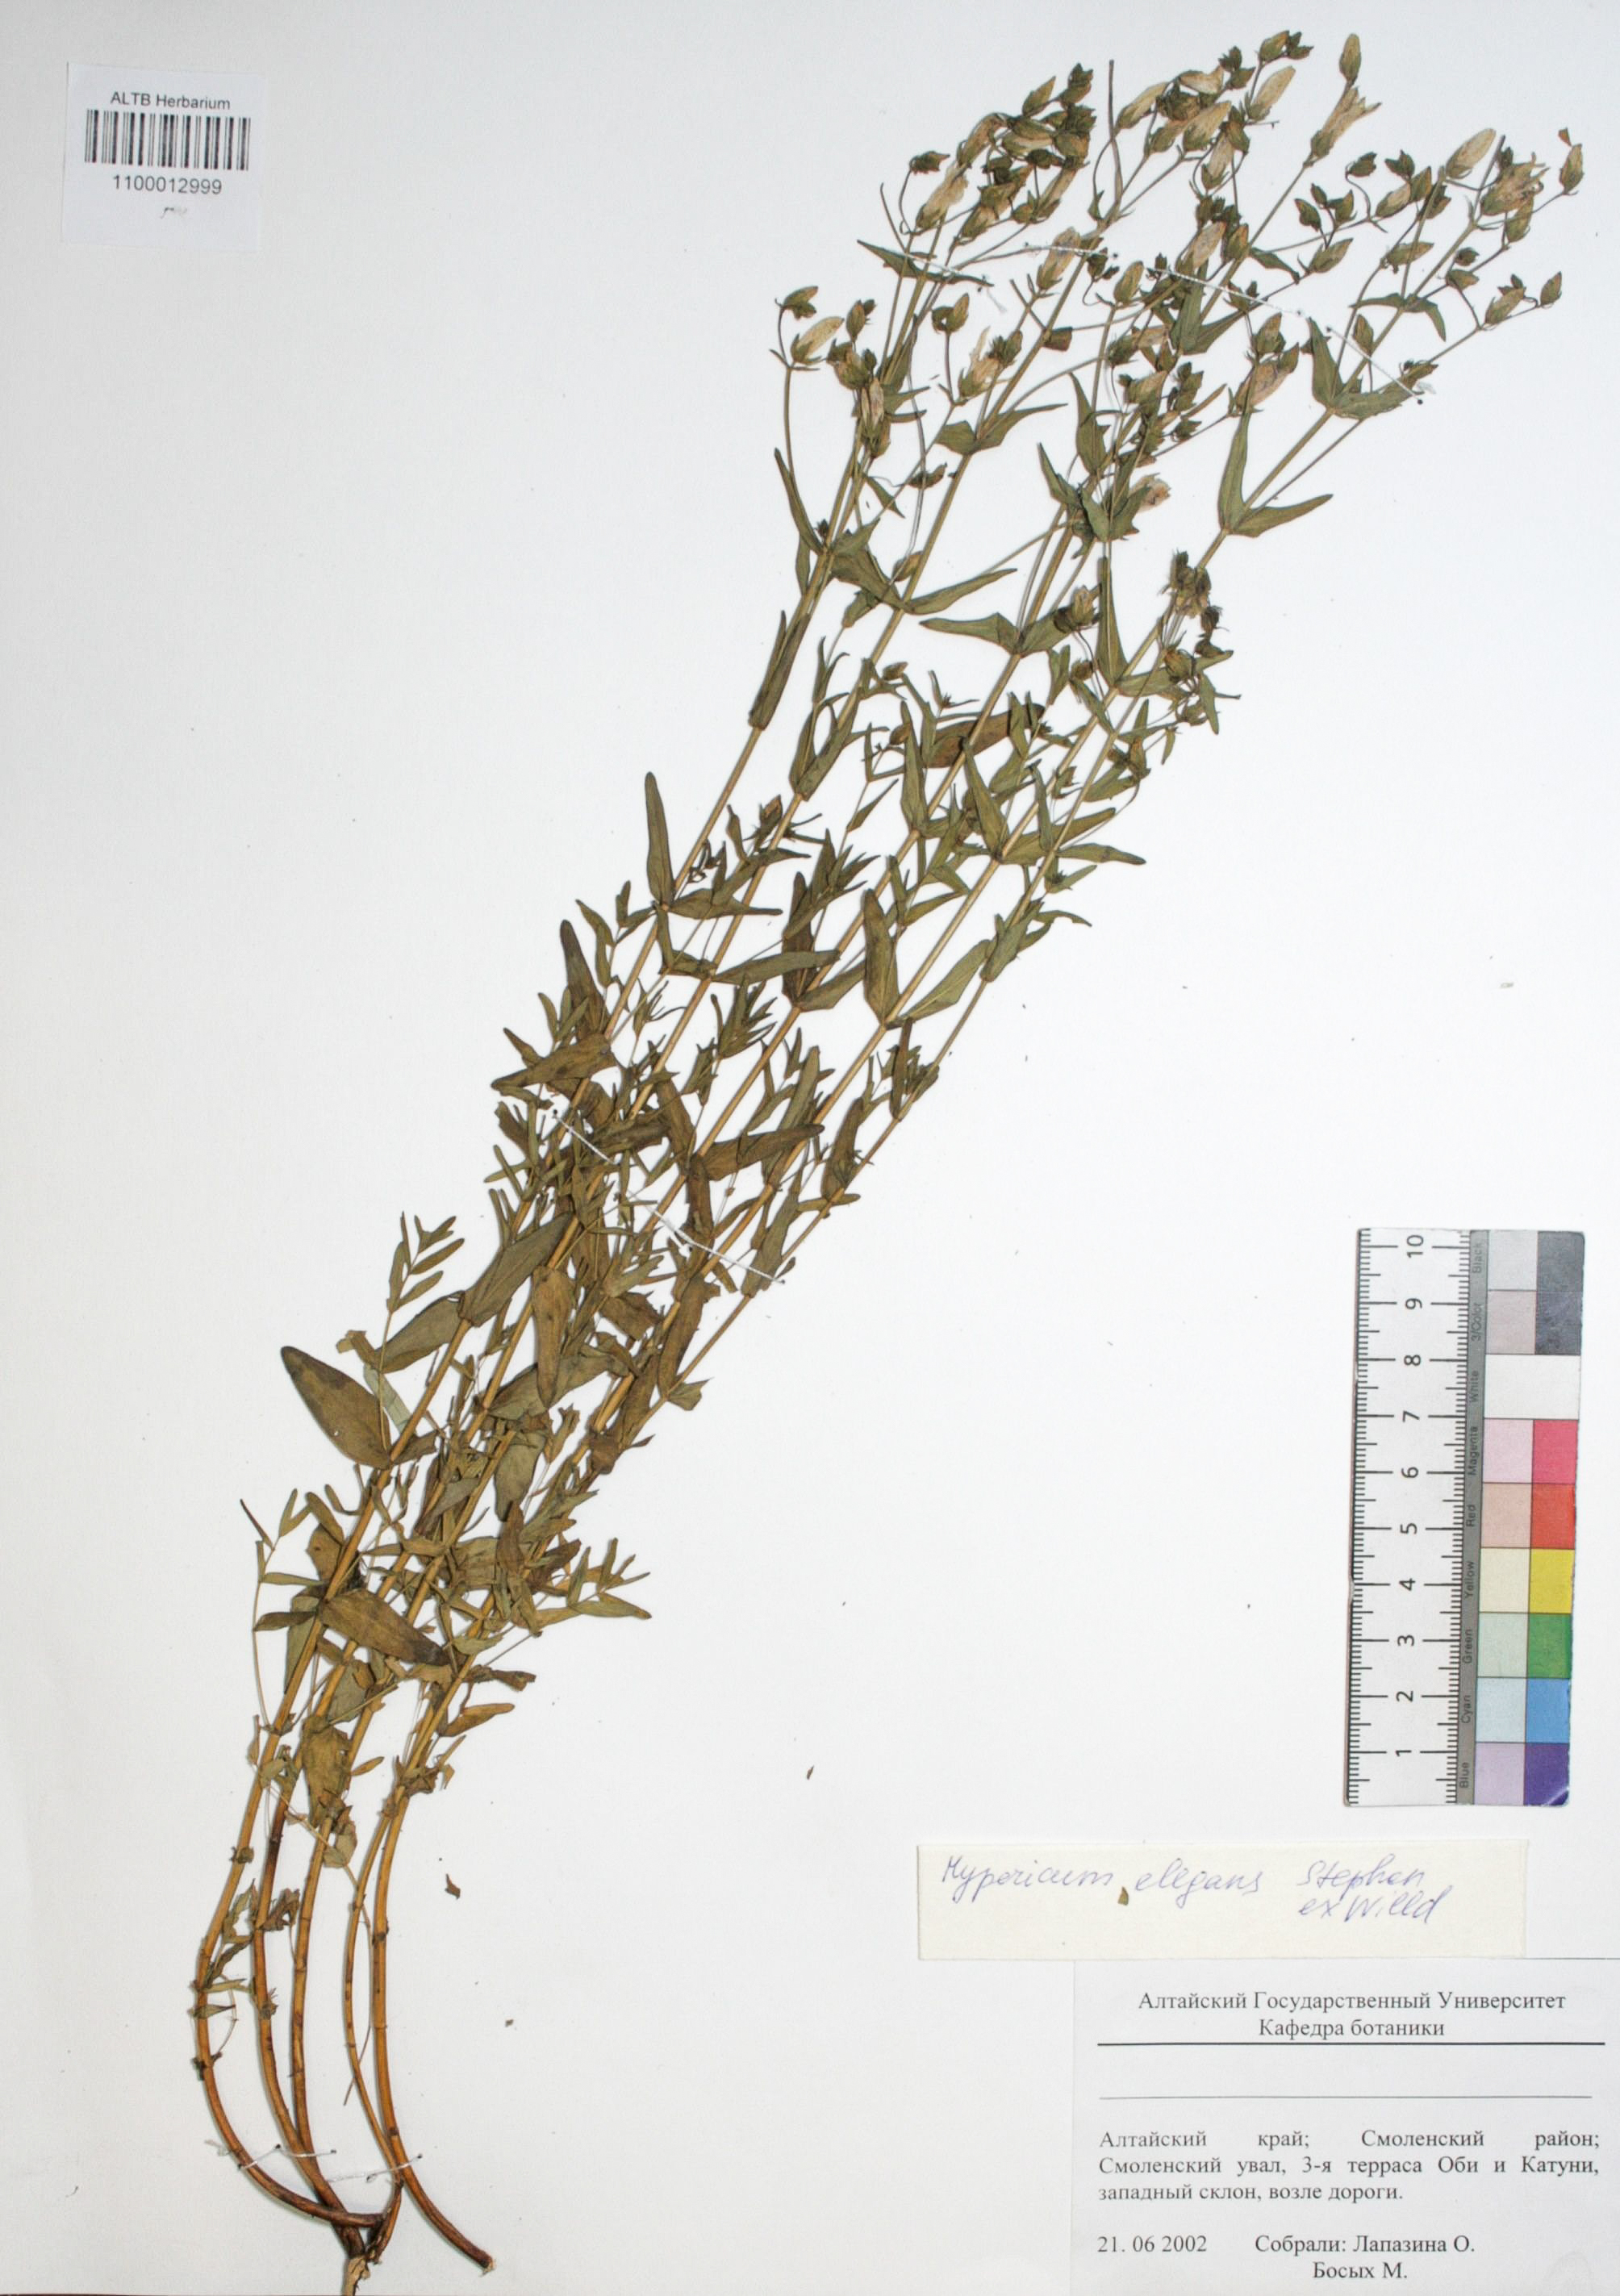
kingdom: Plantae
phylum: Tracheophyta
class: Magnoliopsida
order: Malpighiales
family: Hypericaceae
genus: Hypericum
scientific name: Hypericum elegans
